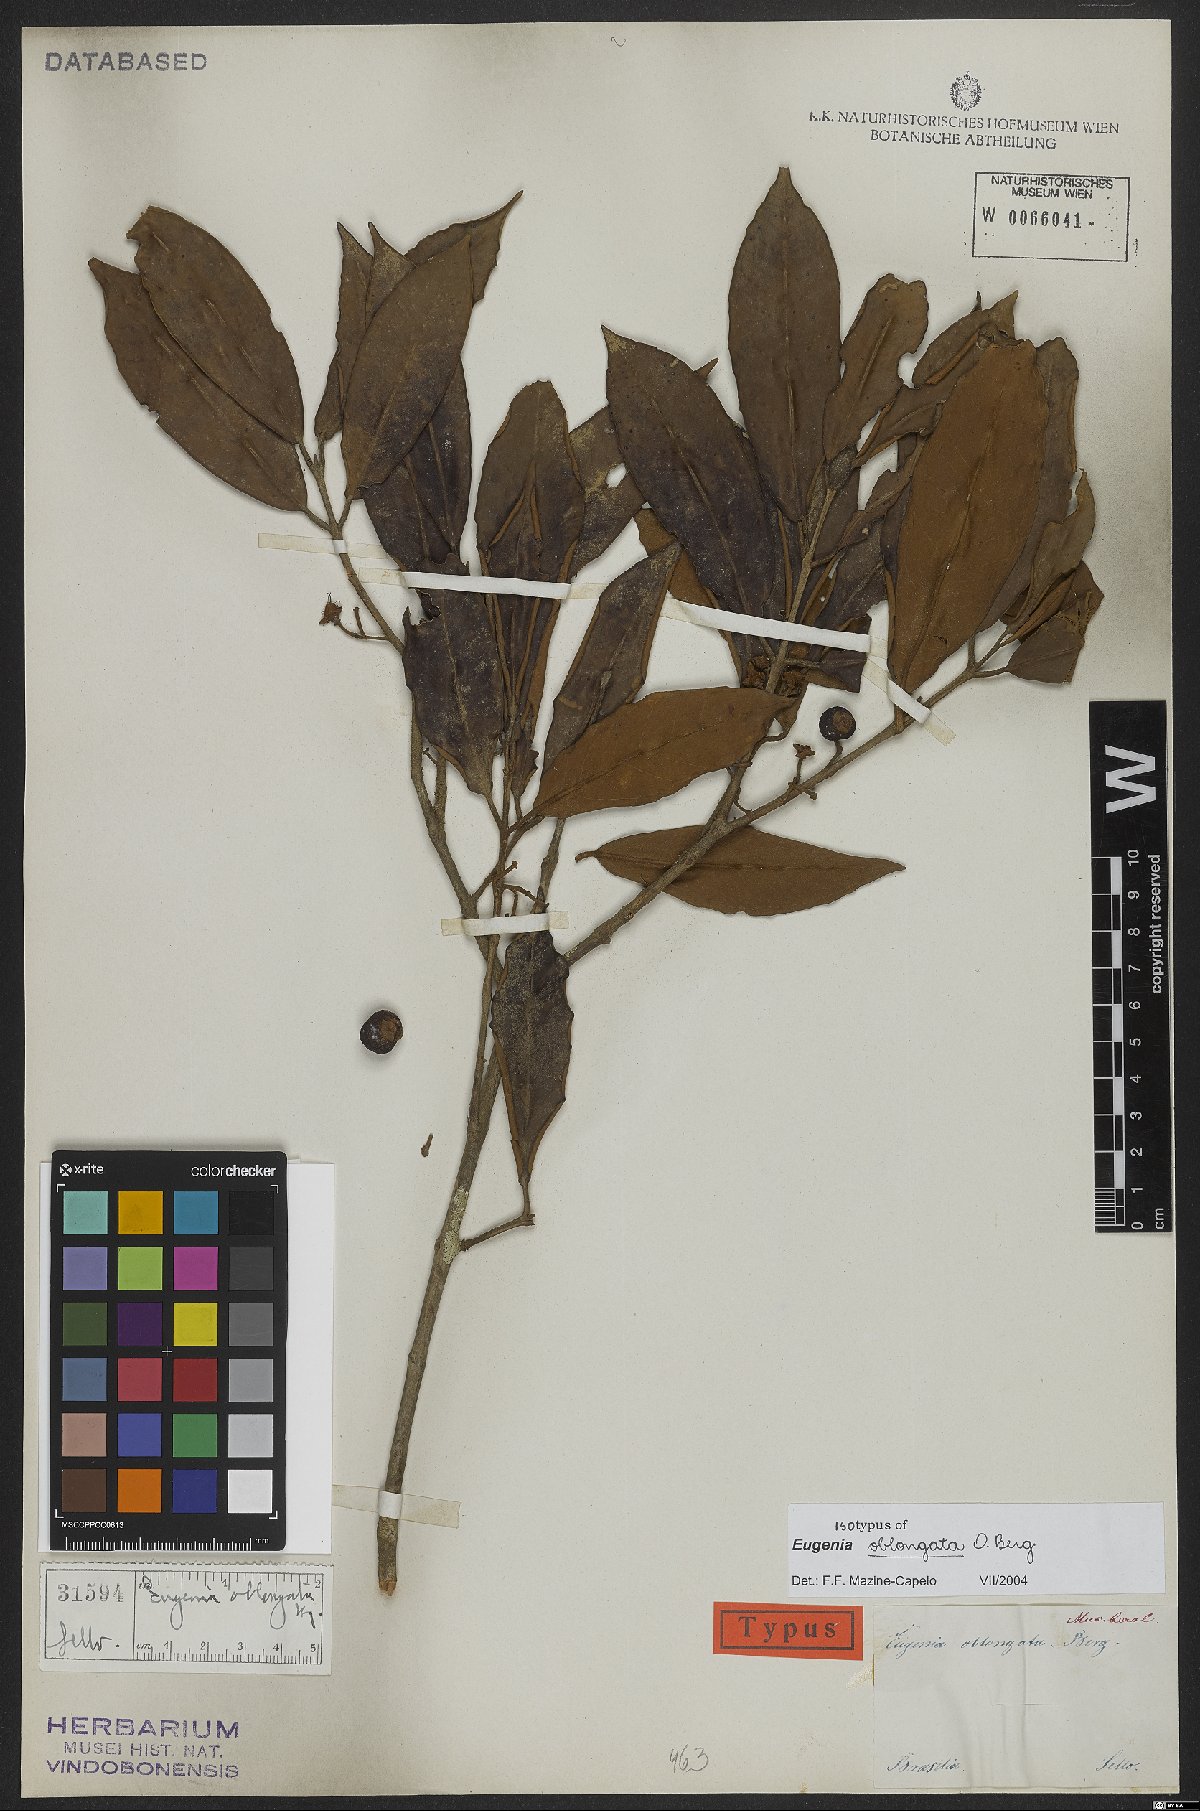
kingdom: Plantae
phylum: Tracheophyta
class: Magnoliopsida
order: Myrtales
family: Myrtaceae
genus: Eugenia
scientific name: Eugenia oblongata
